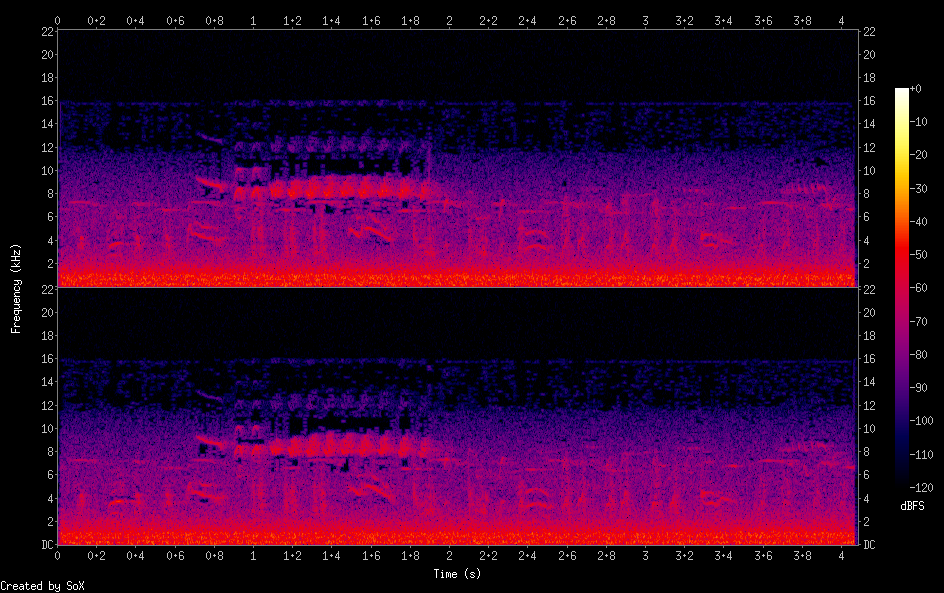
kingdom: Animalia
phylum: Chordata
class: Aves
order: Passeriformes
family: Fringillidae
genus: Spinus
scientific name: Spinus spinus
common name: Eurasian siskin
